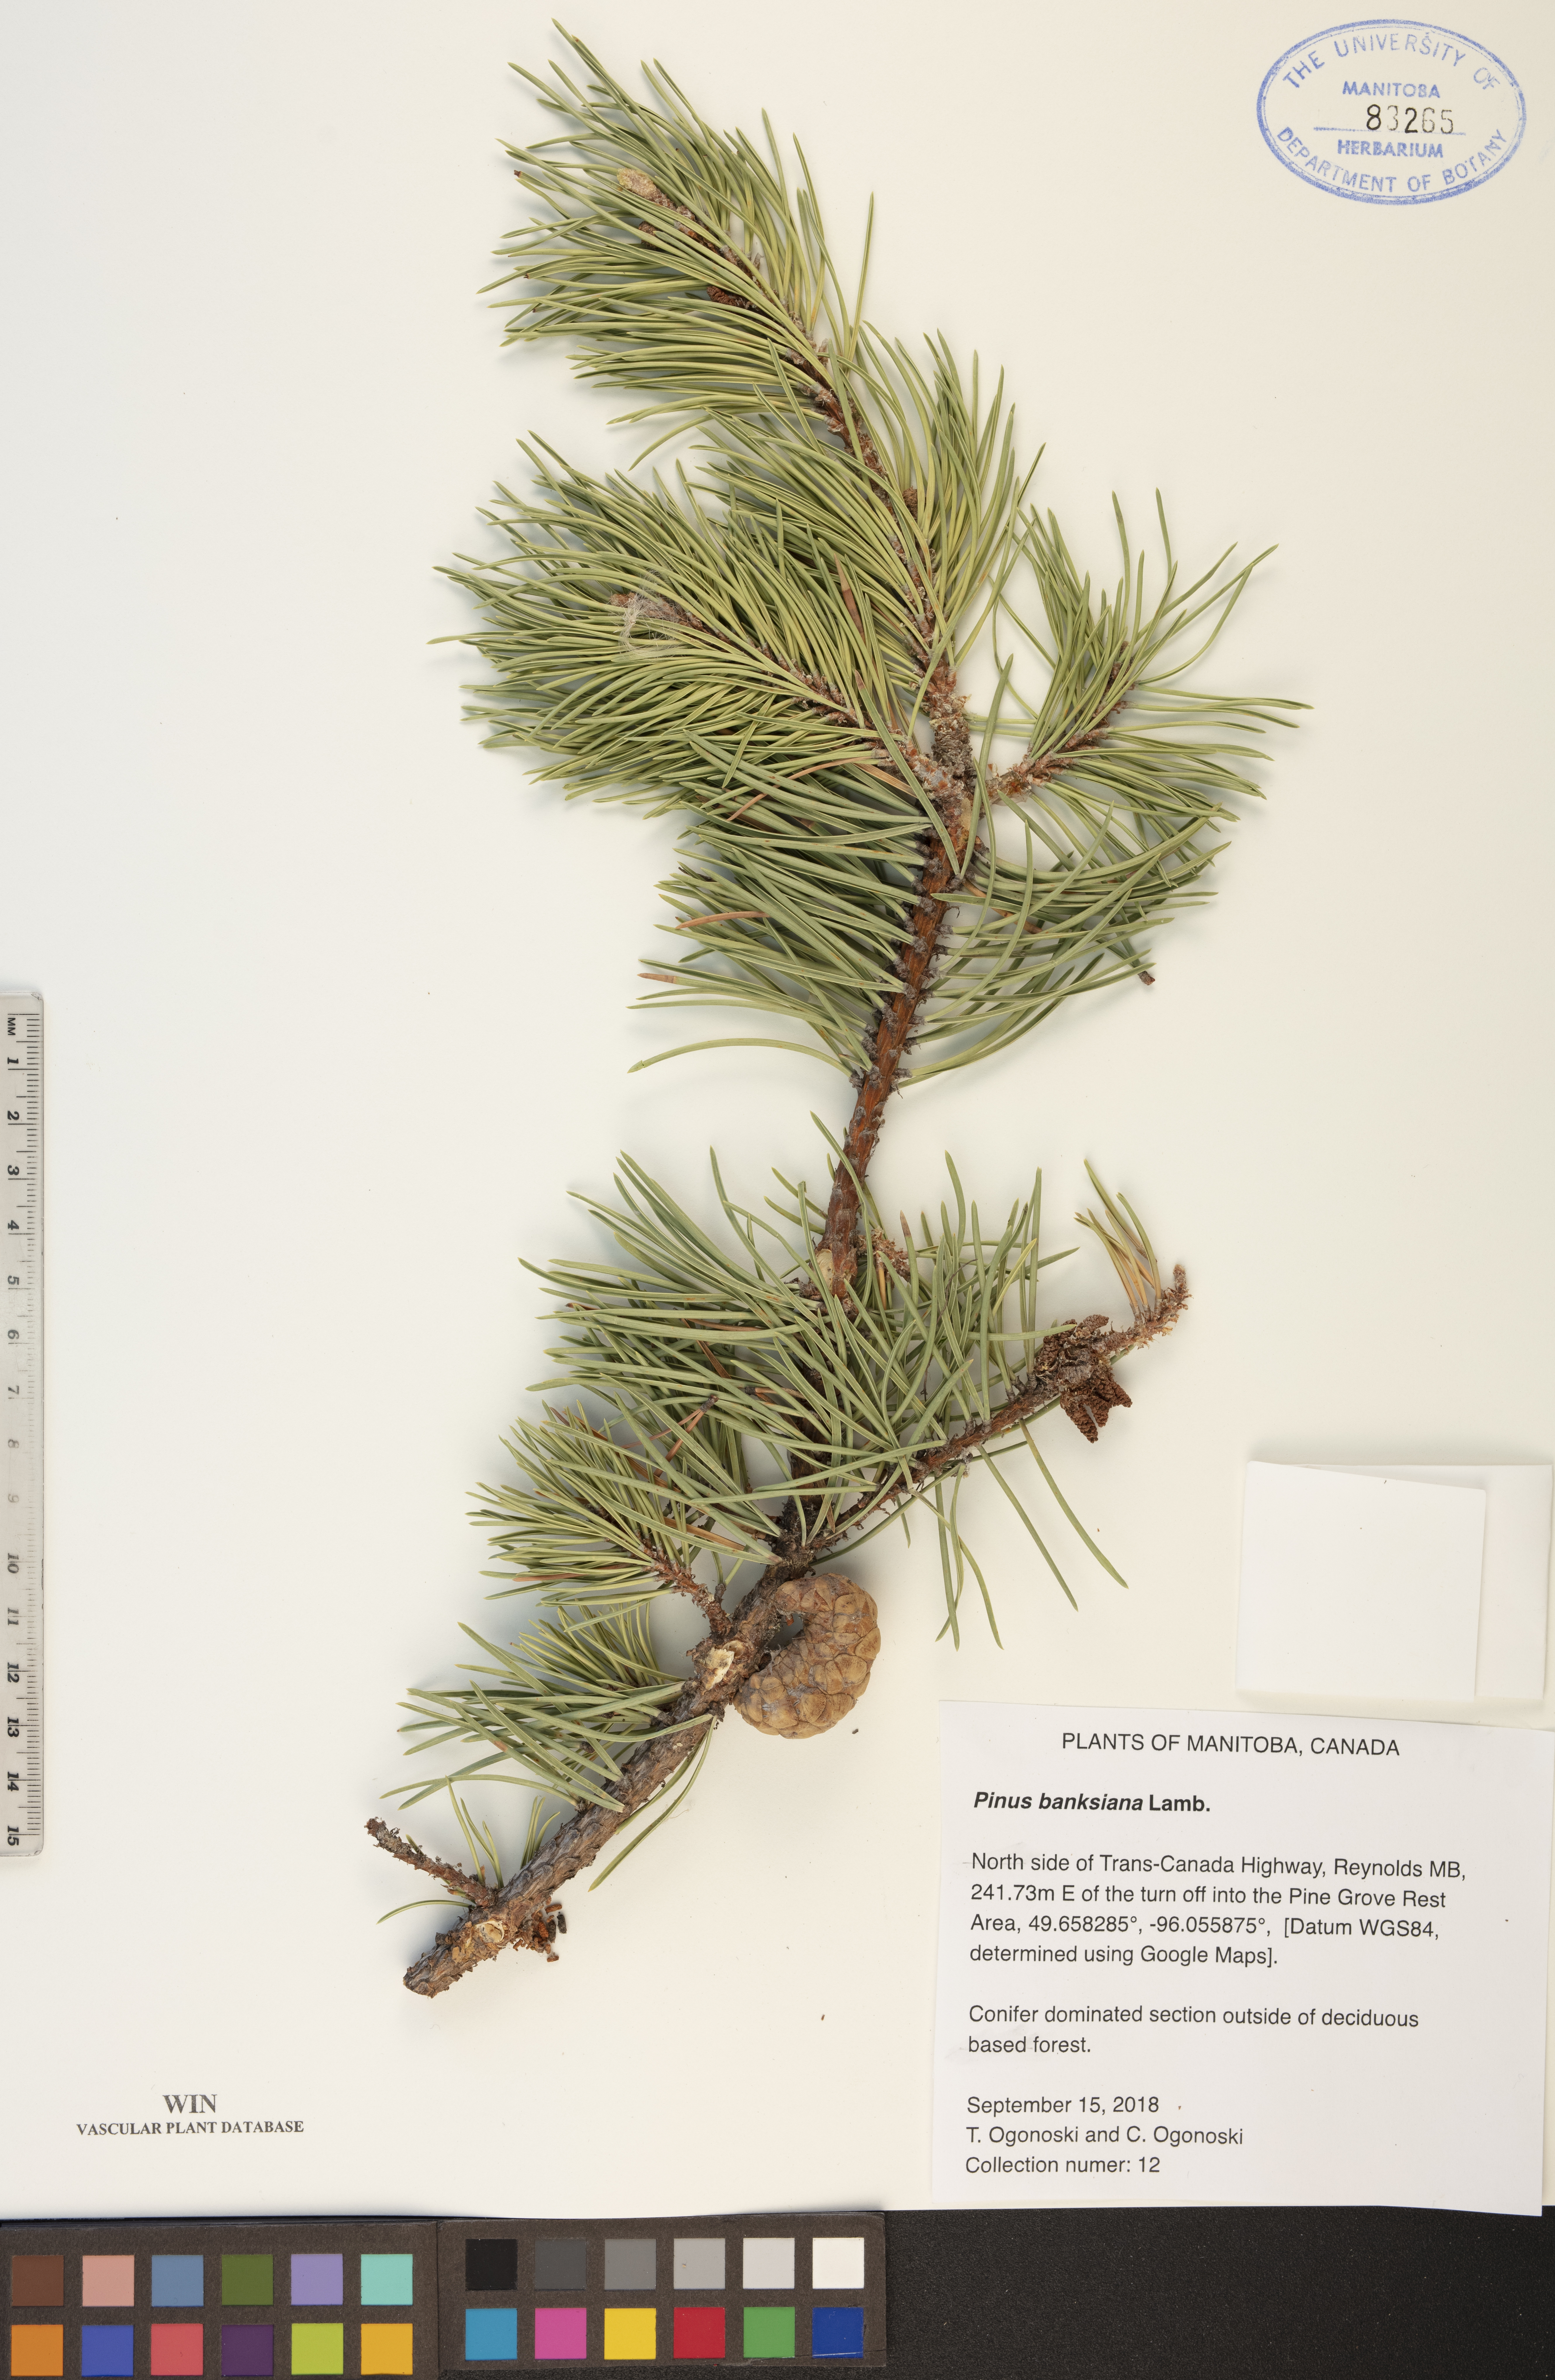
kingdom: Plantae
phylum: Tracheophyta
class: Pinopsida
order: Pinales
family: Pinaceae
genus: Pinus
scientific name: Pinus banksiana
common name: Jack pine
